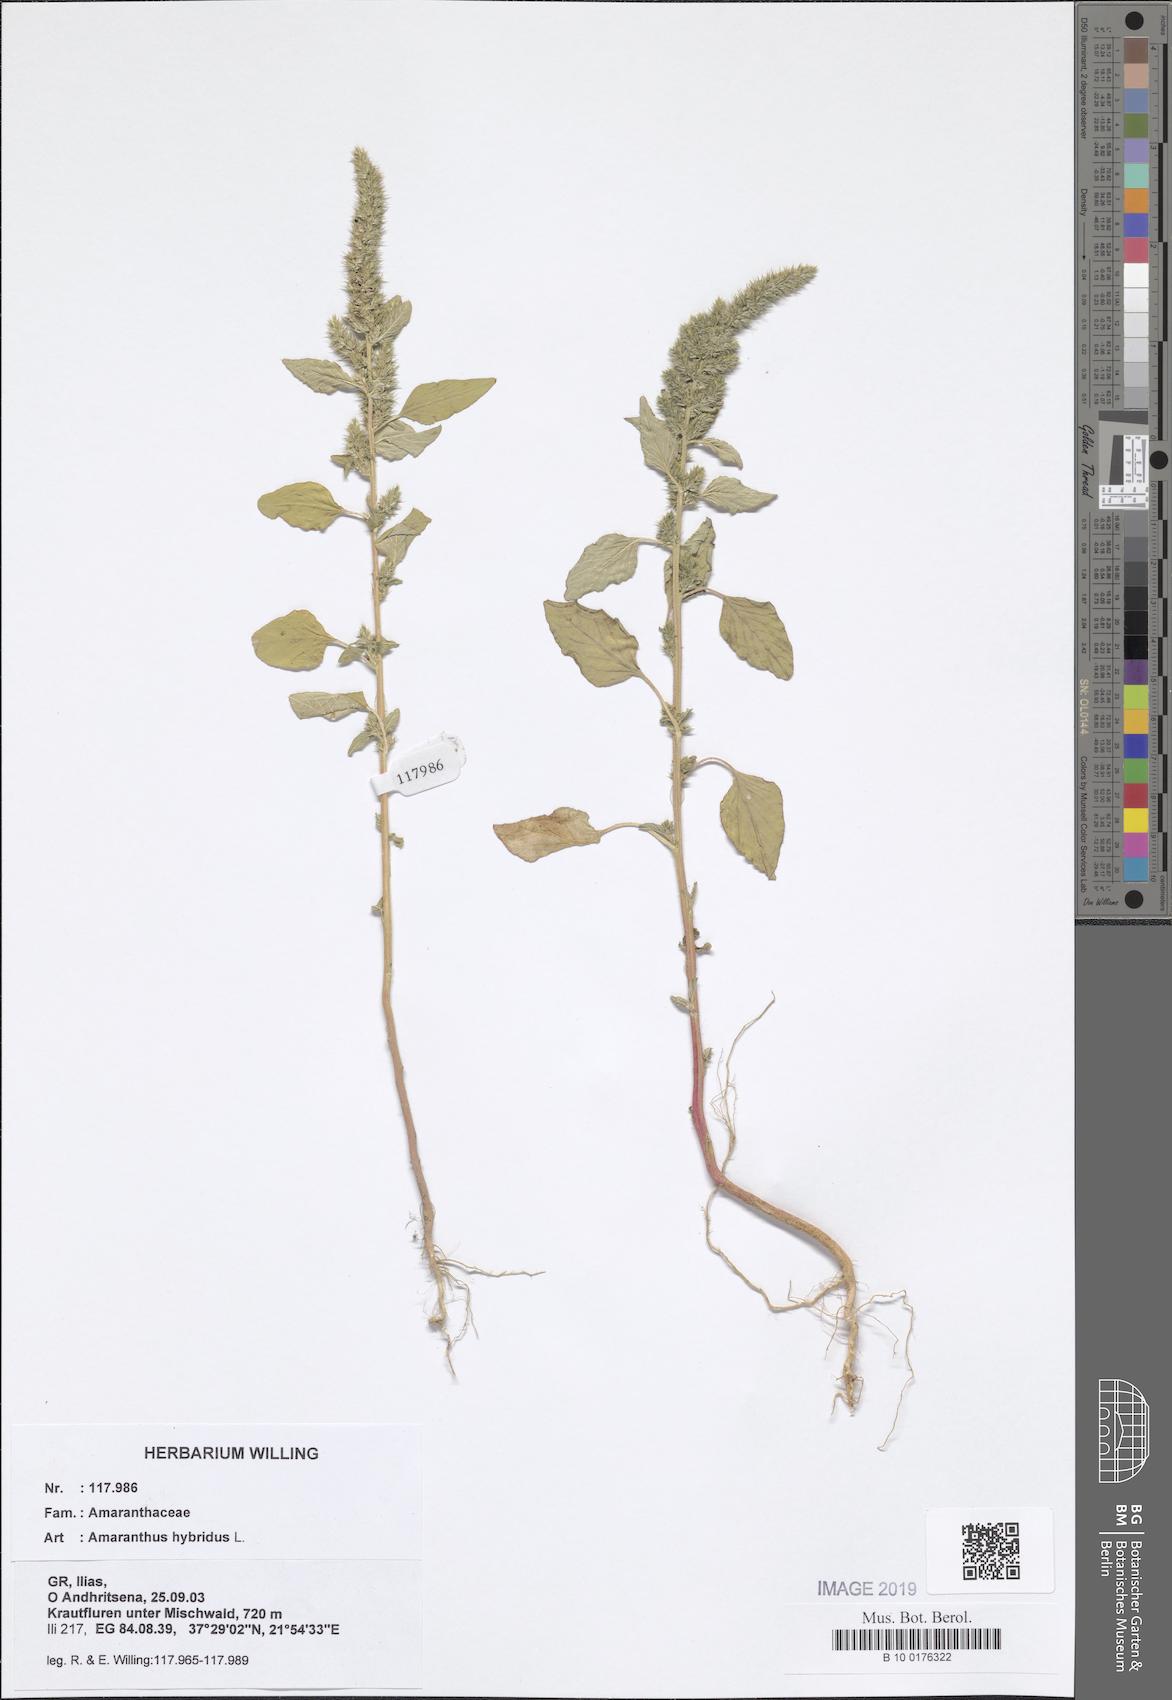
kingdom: Plantae
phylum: Tracheophyta
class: Magnoliopsida
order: Caryophyllales
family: Amaranthaceae
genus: Amaranthus
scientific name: Amaranthus hybridus
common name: Green amaranth
